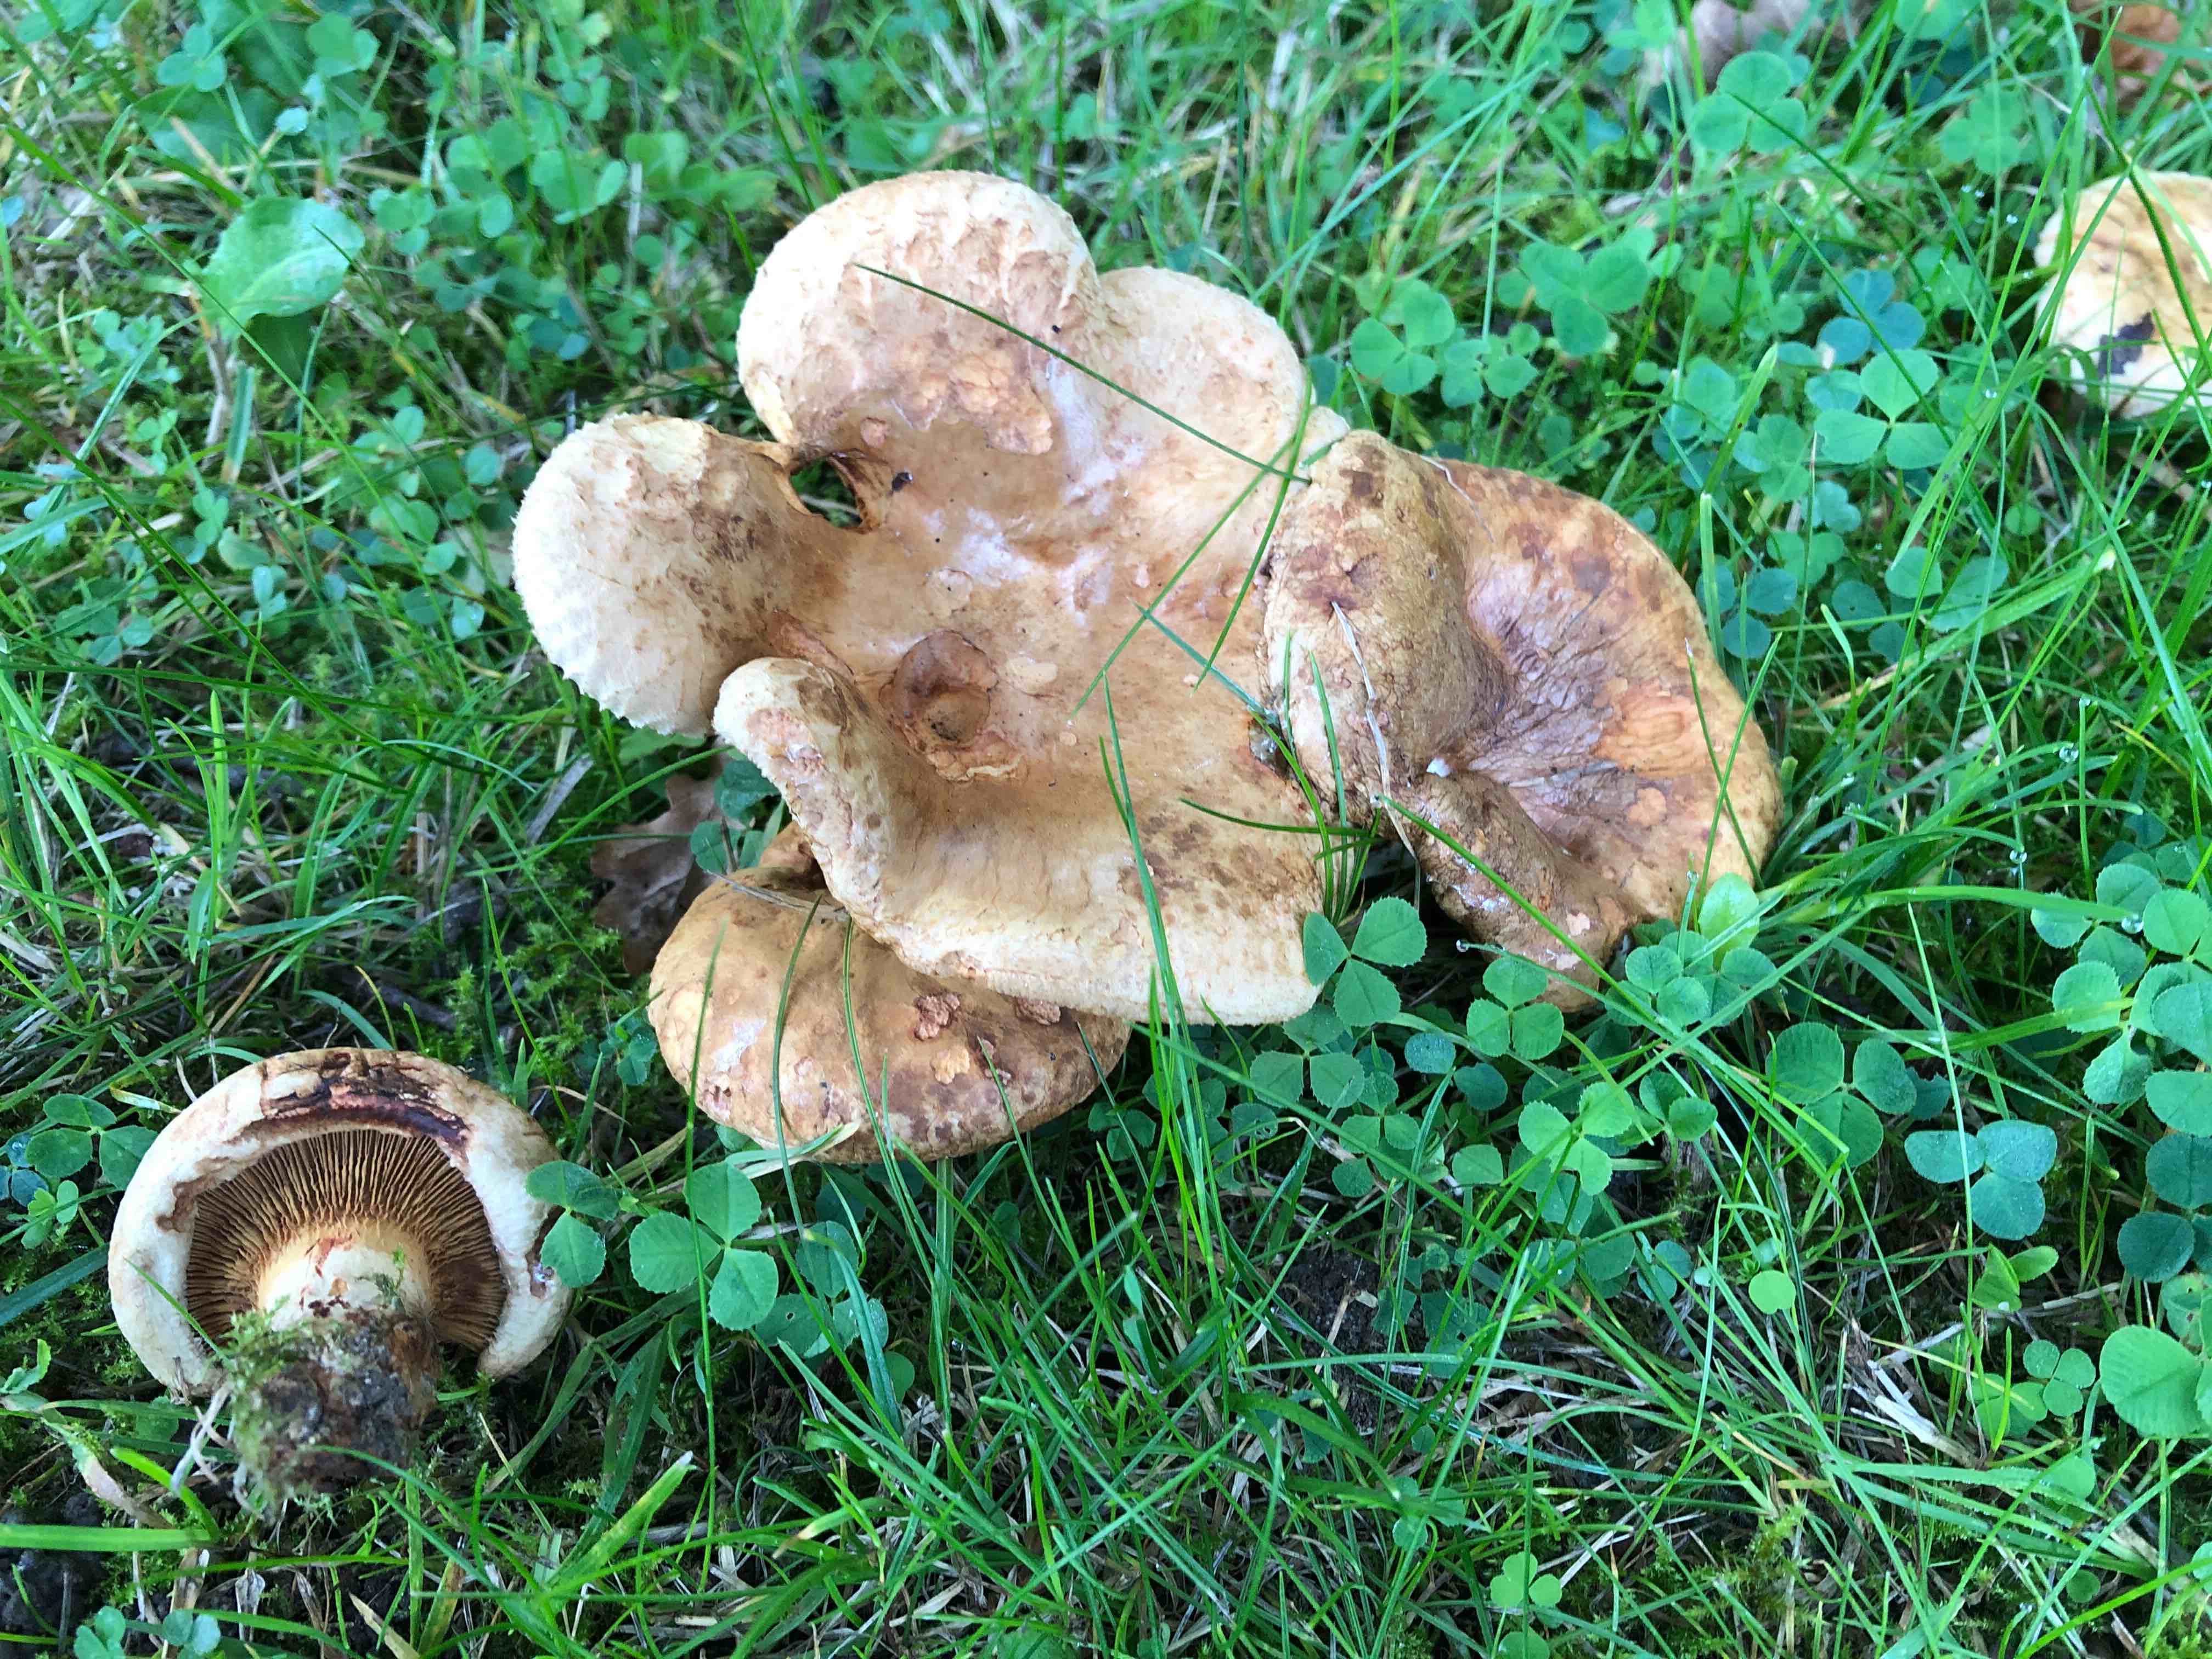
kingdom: Fungi
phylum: Basidiomycota
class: Agaricomycetes
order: Boletales
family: Paxillaceae
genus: Paxillus
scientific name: Paxillus
